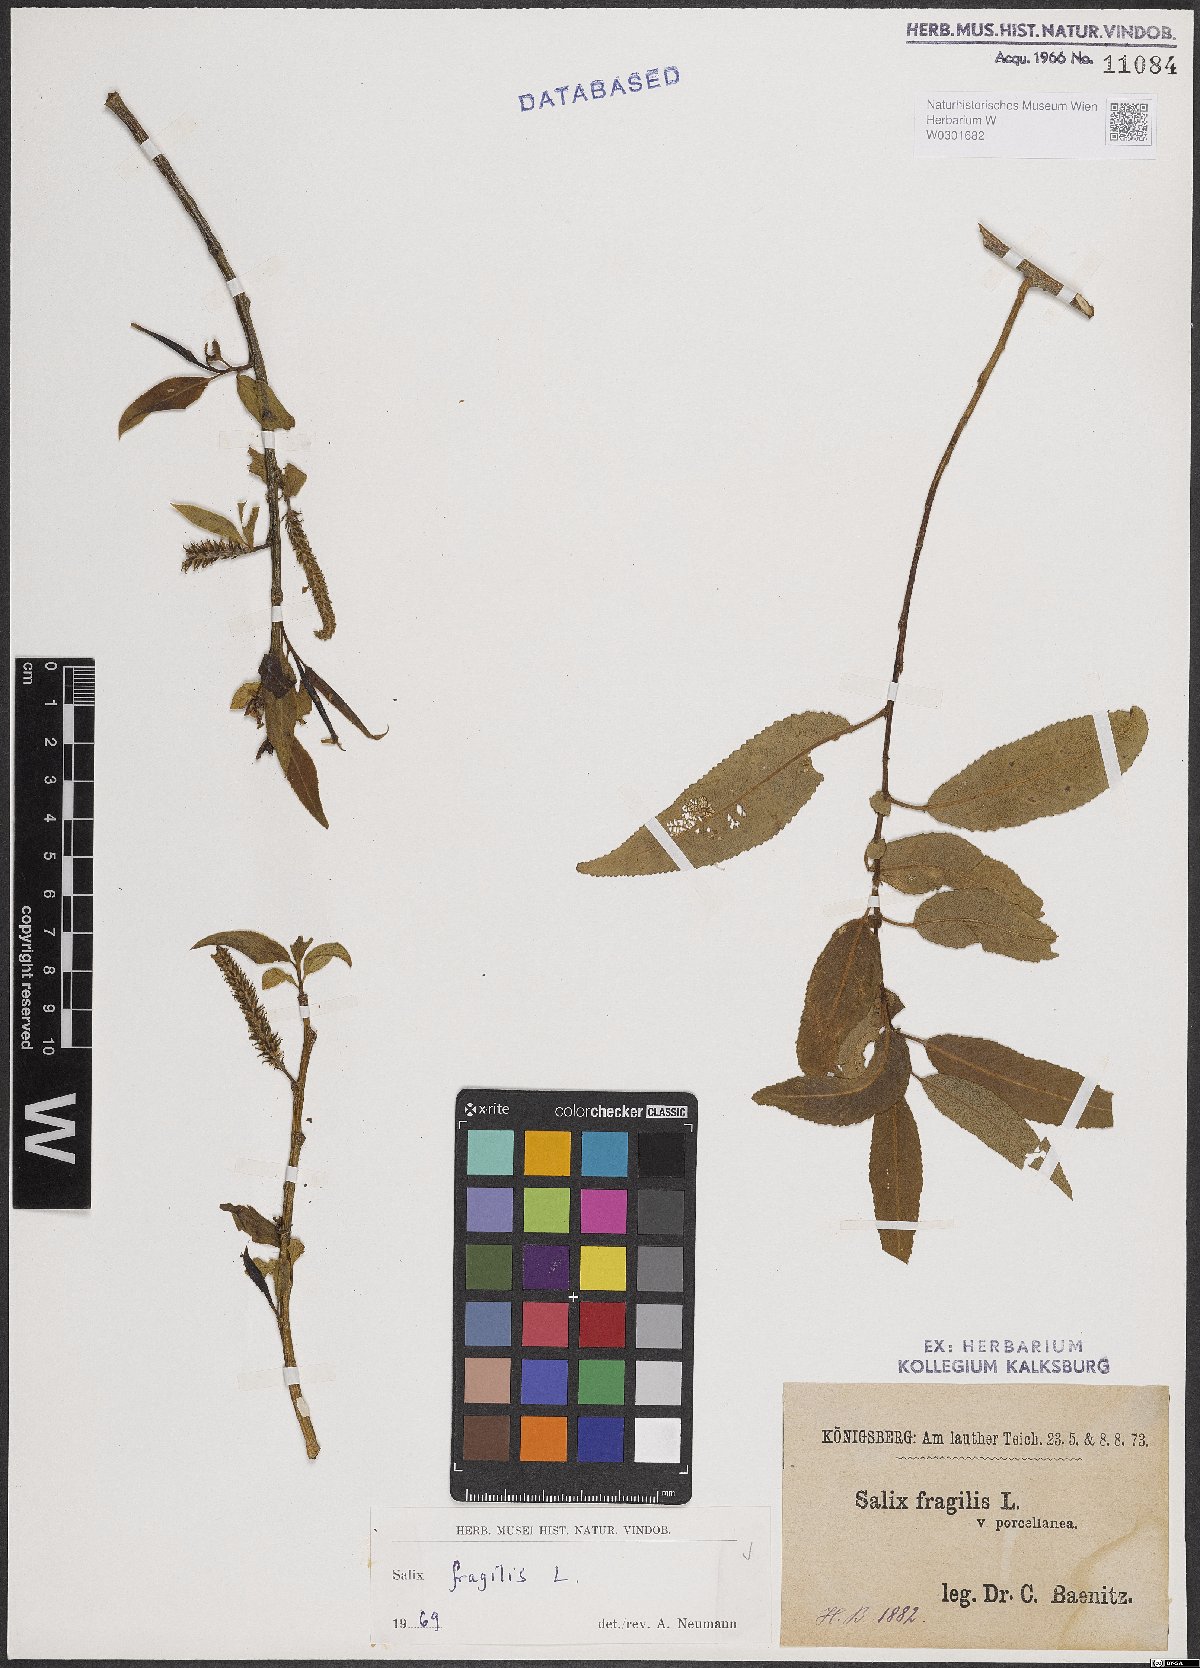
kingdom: Plantae
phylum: Tracheophyta
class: Magnoliopsida
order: Malpighiales
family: Salicaceae
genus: Salix
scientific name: Salix fragilis
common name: Crack willow
